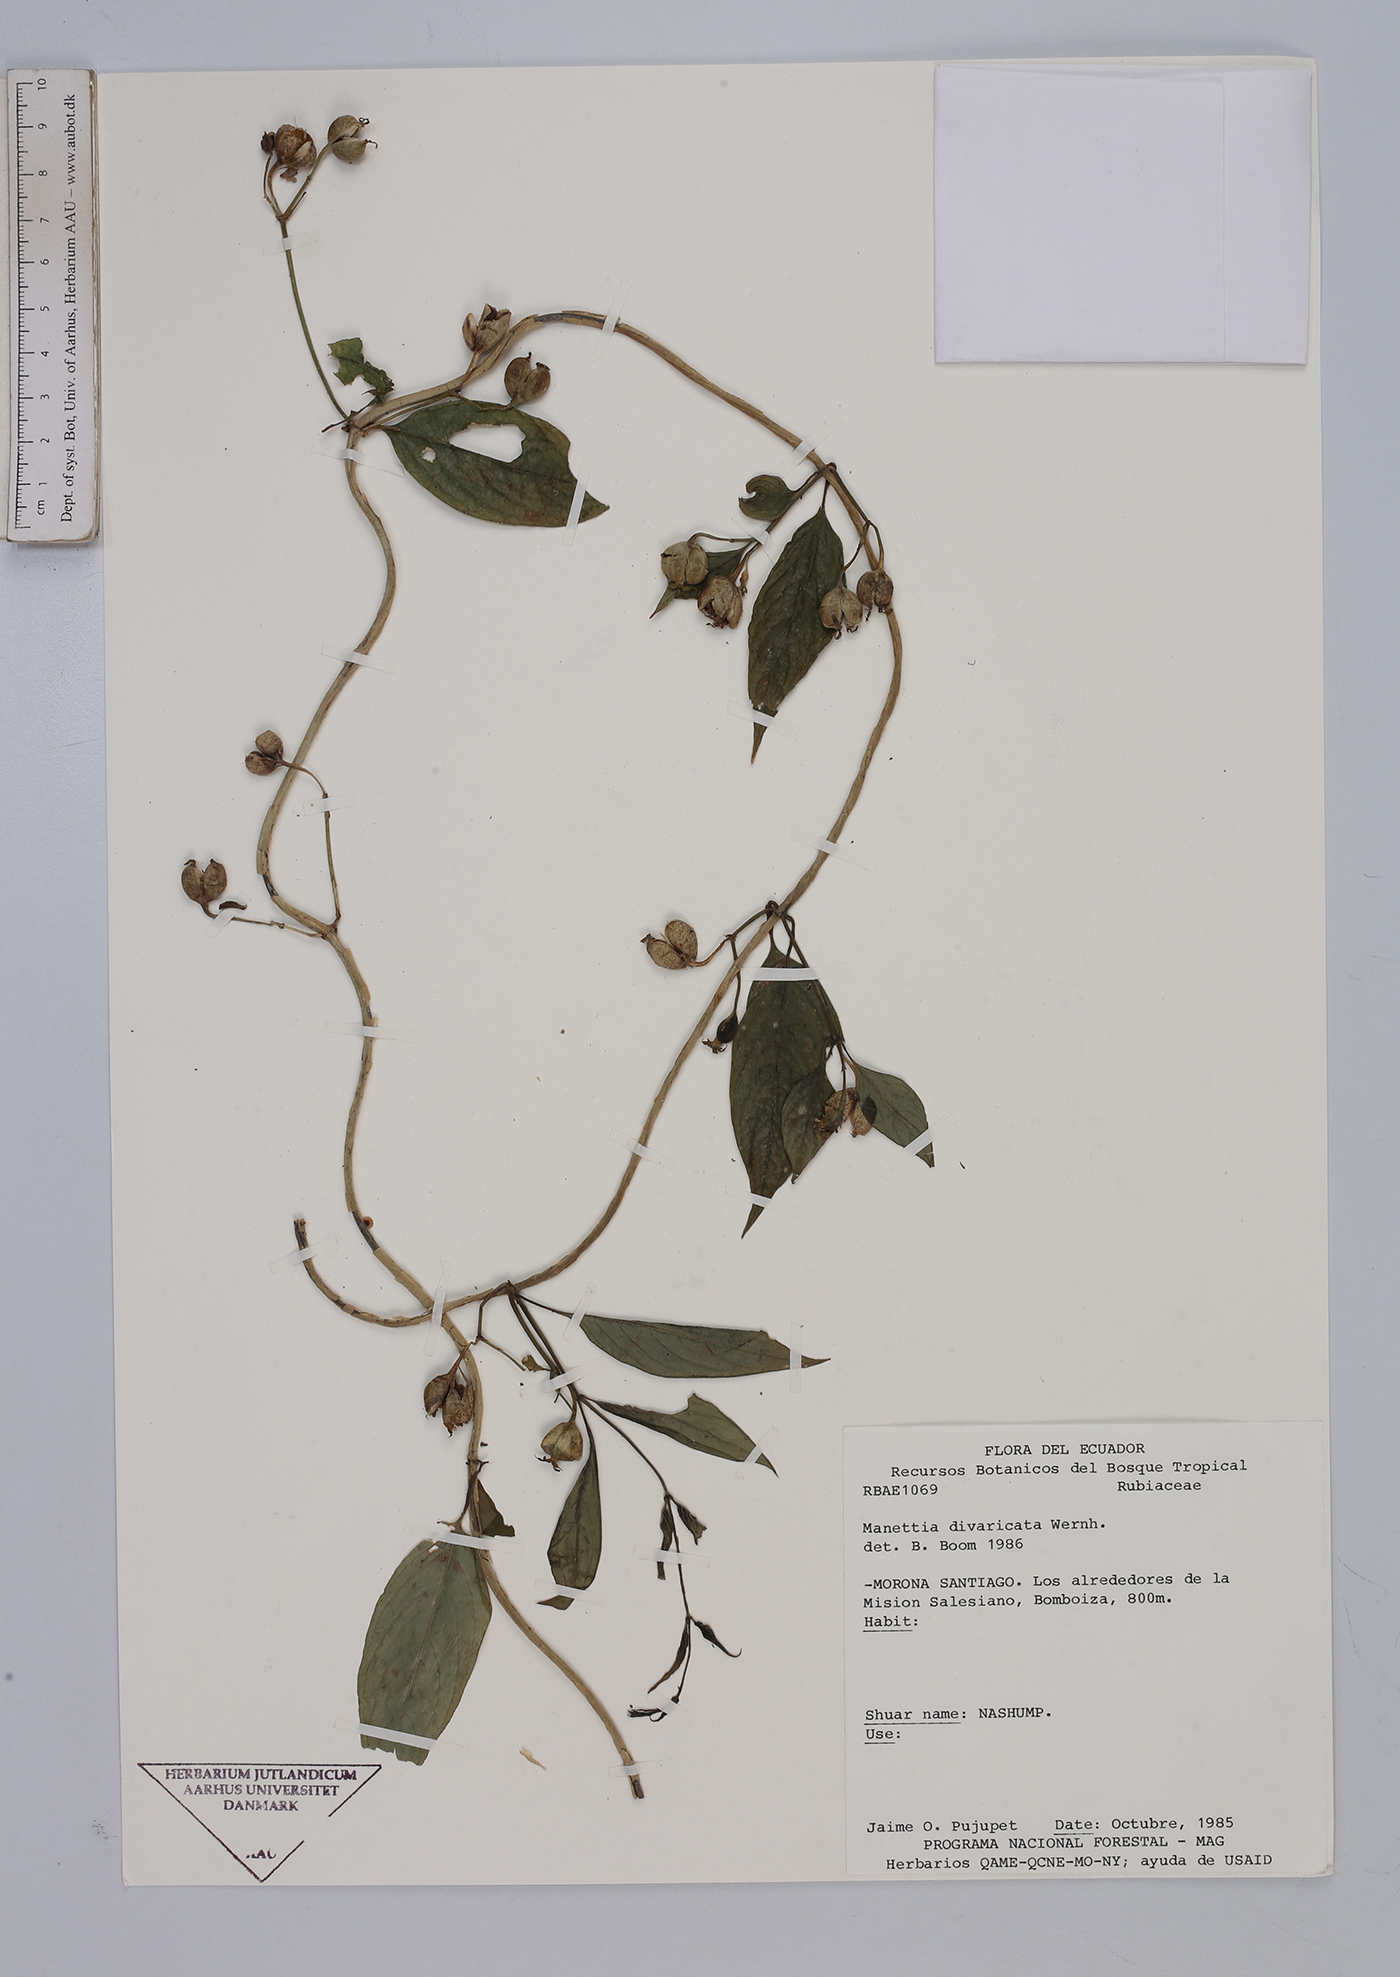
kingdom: Plantae
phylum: Tracheophyta
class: Magnoliopsida
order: Gentianales
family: Rubiaceae
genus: Manettia
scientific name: Manettia divaricata
